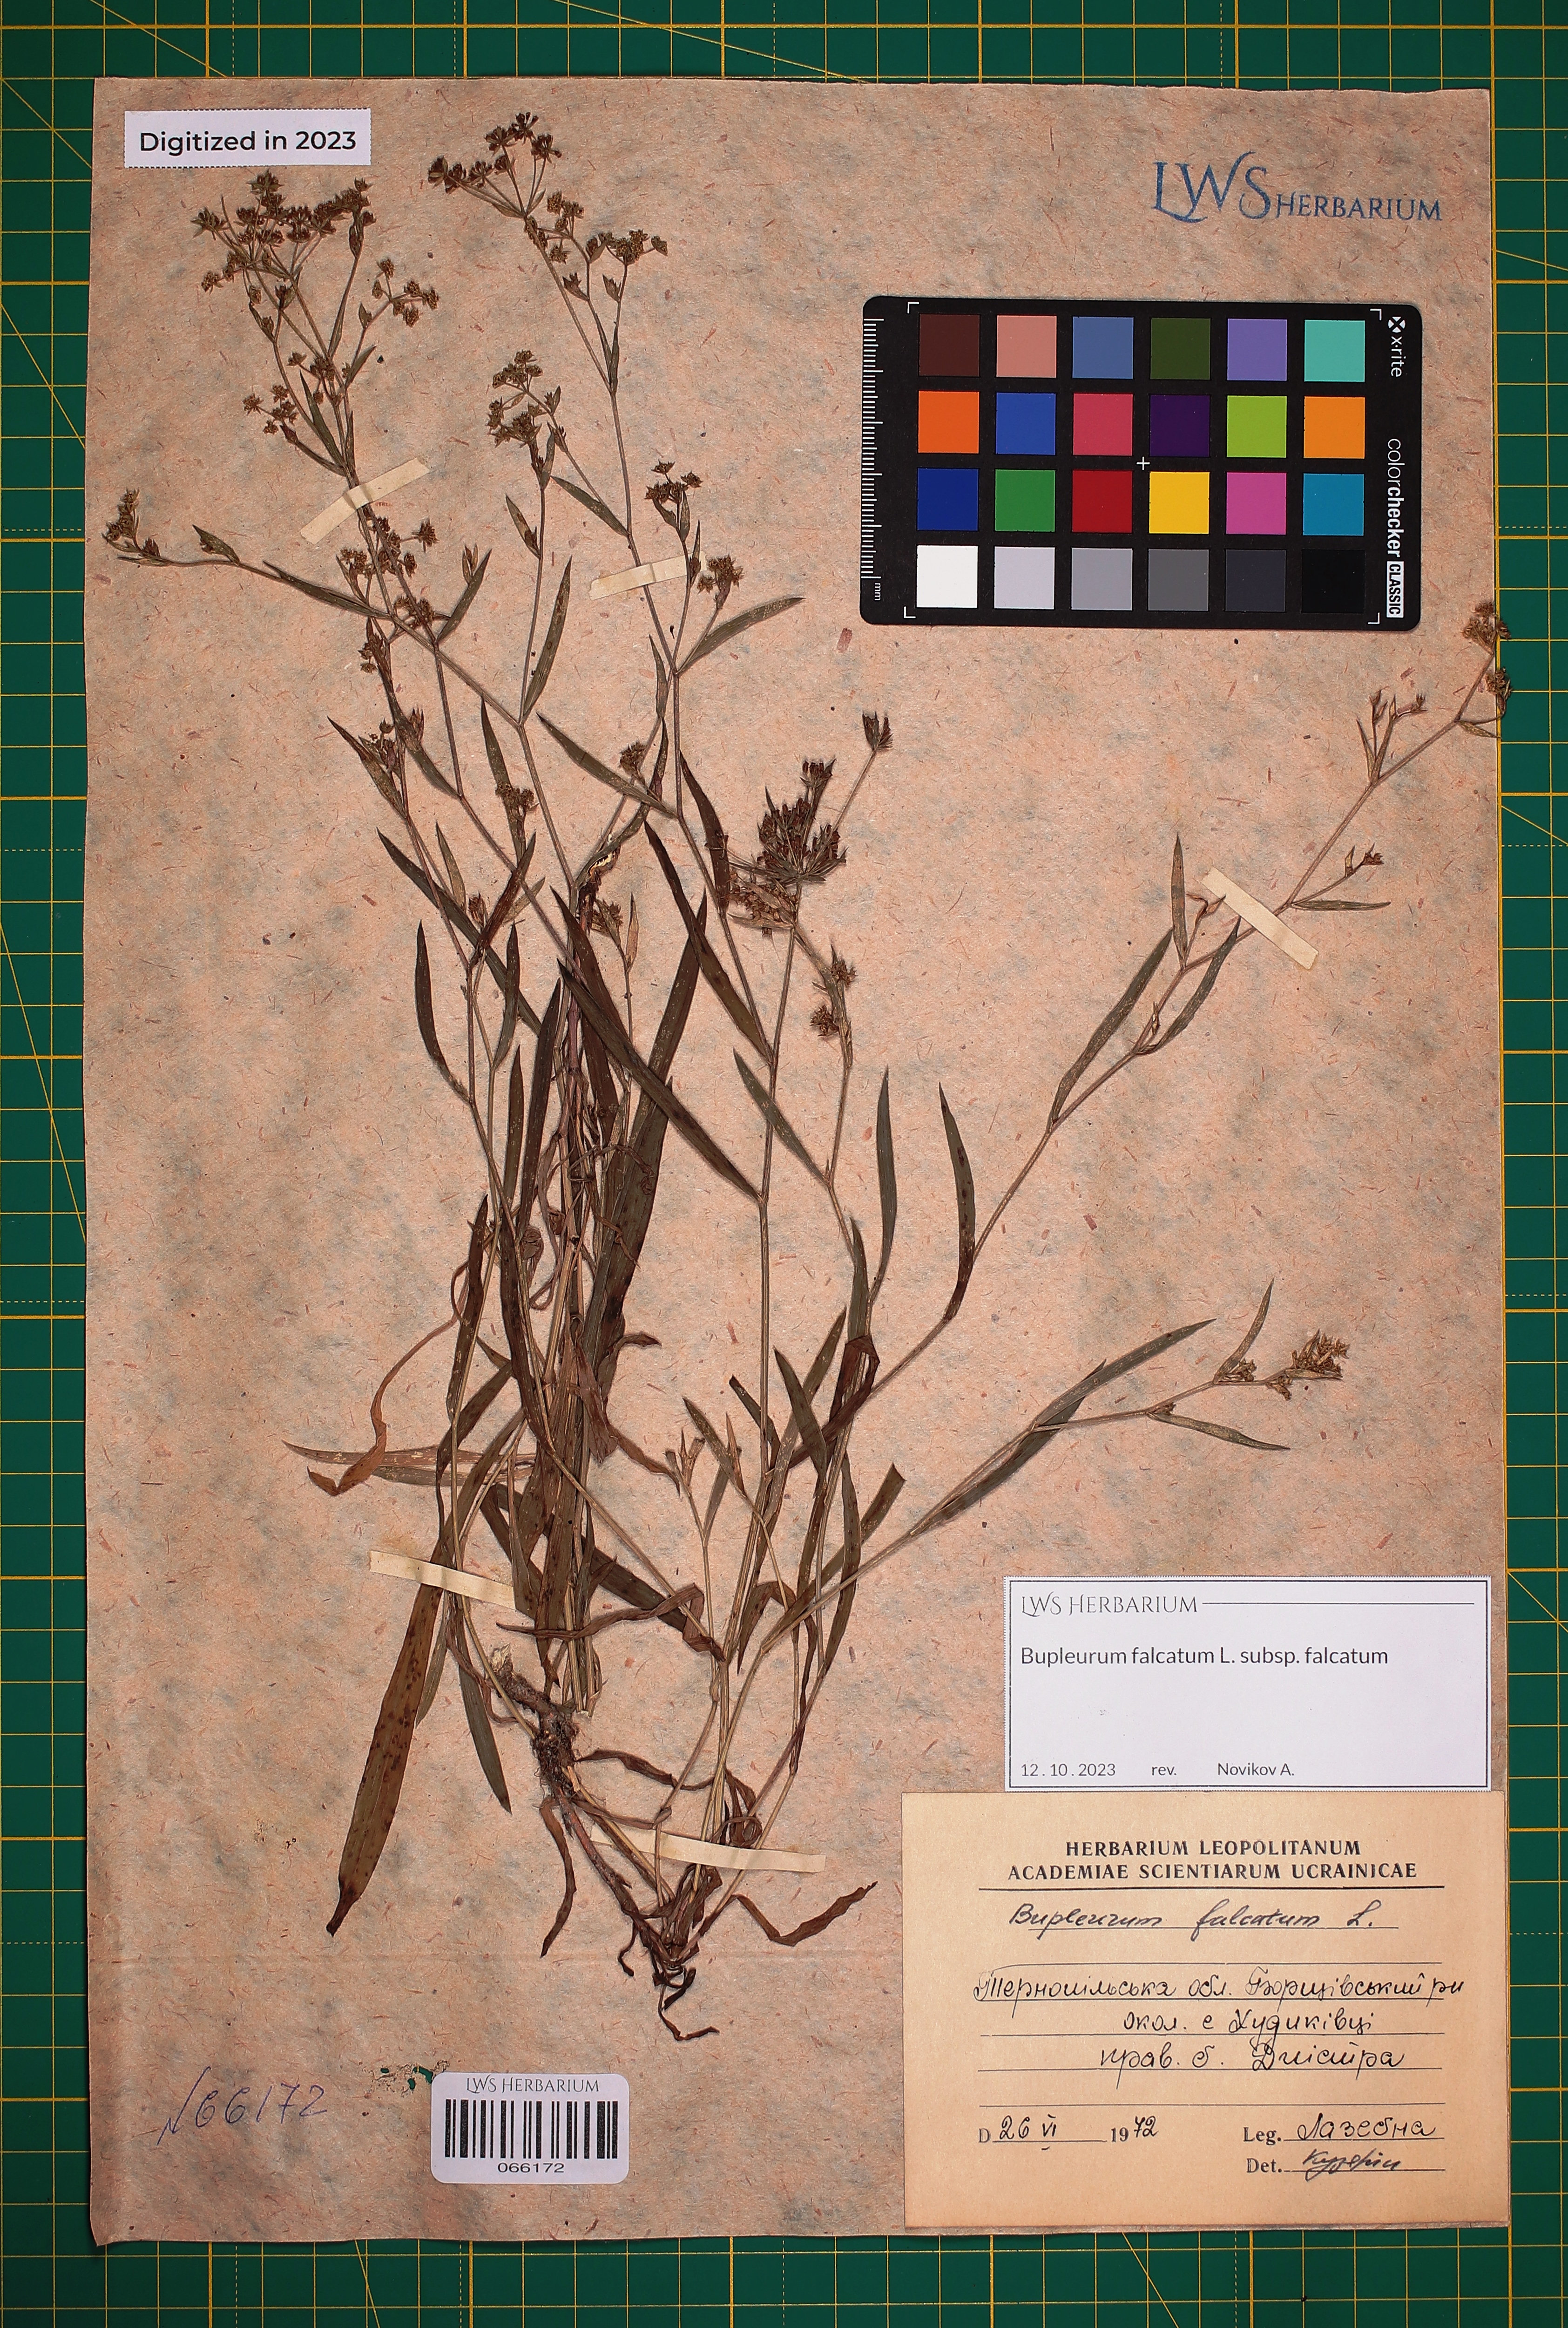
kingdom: Plantae
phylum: Tracheophyta
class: Magnoliopsida
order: Apiales
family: Apiaceae
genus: Bupleurum
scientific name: Bupleurum falcatum
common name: Sickle-leaved hare's-ear
